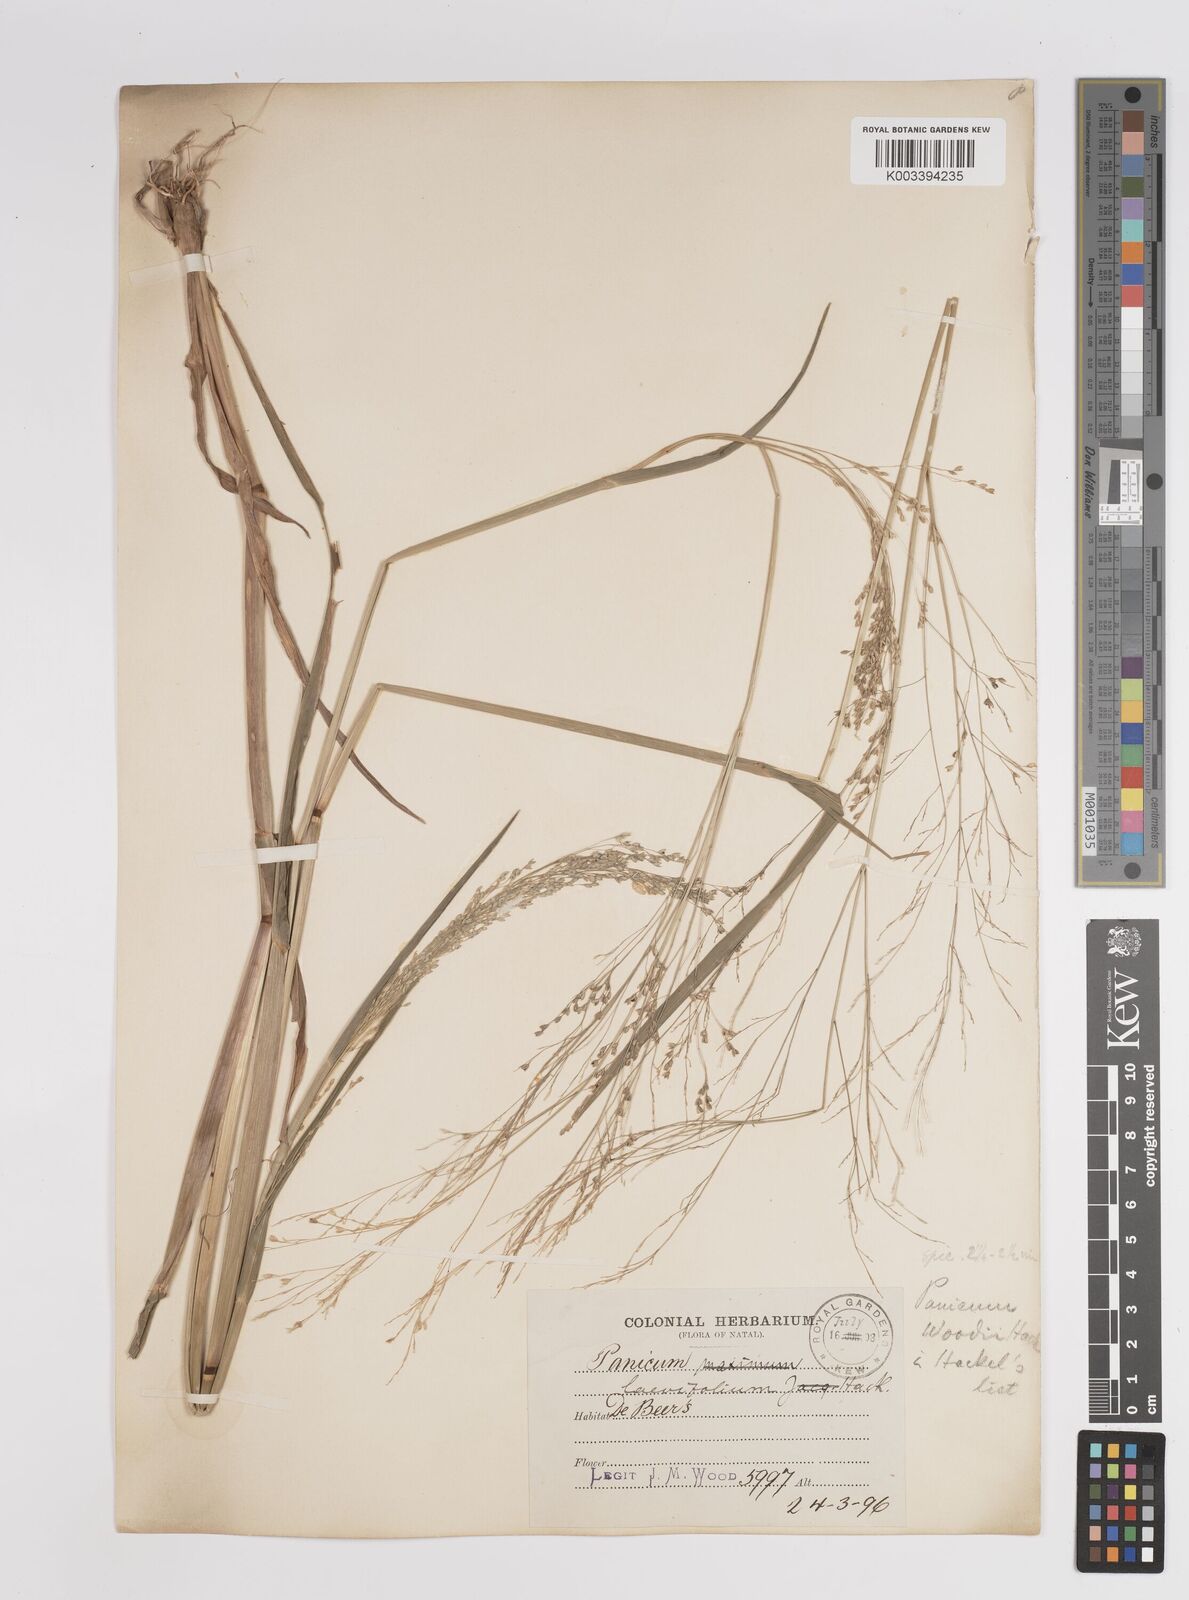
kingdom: Plantae
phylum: Tracheophyta
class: Liliopsida
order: Poales
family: Poaceae
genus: Panicum
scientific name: Panicum schinzii
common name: Sweet grass
